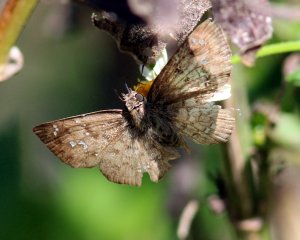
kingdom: Animalia
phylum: Arthropoda
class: Insecta
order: Lepidoptera
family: Hesperiidae
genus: Carrhenes
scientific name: Carrhenes canescens
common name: Hoary Skipper
